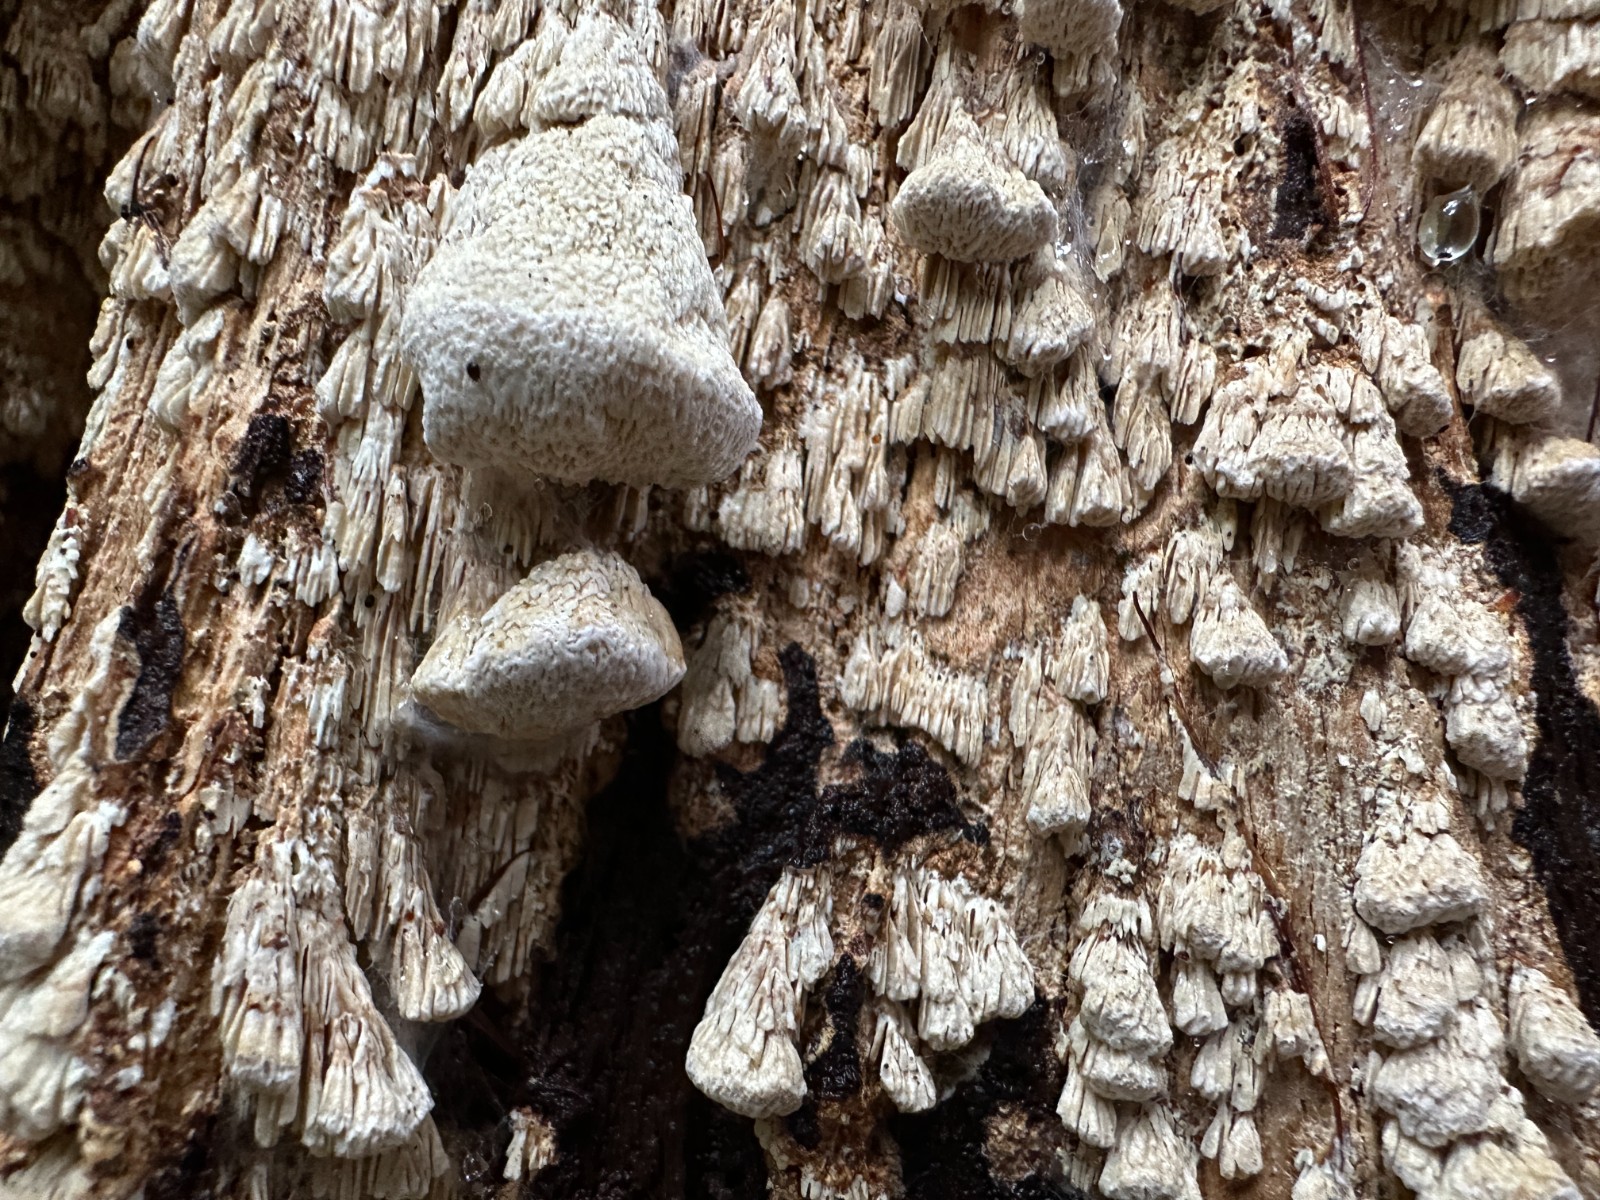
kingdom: Fungi
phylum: Basidiomycota
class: Agaricomycetes
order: Polyporales
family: Fomitopsidaceae
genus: Daedalea
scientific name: Daedalea xantha
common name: gul sejporesvamp
